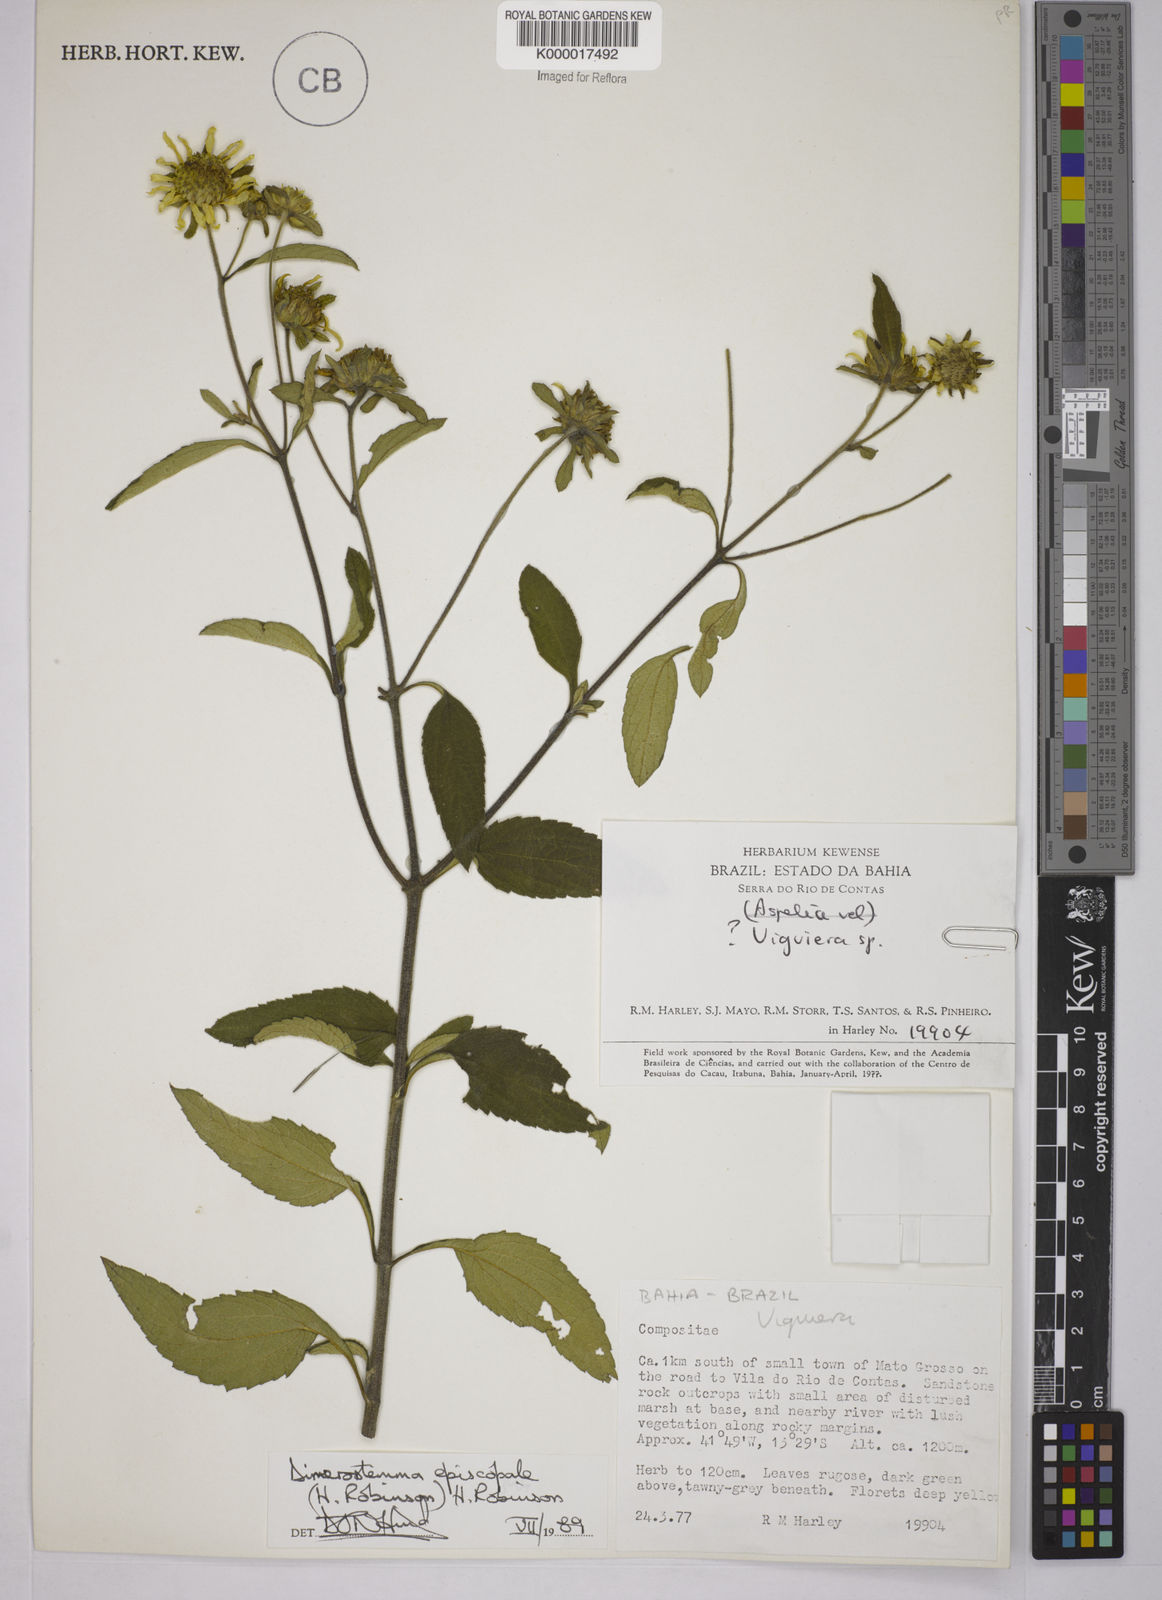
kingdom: Plantae
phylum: Tracheophyta
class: Magnoliopsida
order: Asterales
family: Asteraceae
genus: Dimerostemma
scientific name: Dimerostemma episcopale
